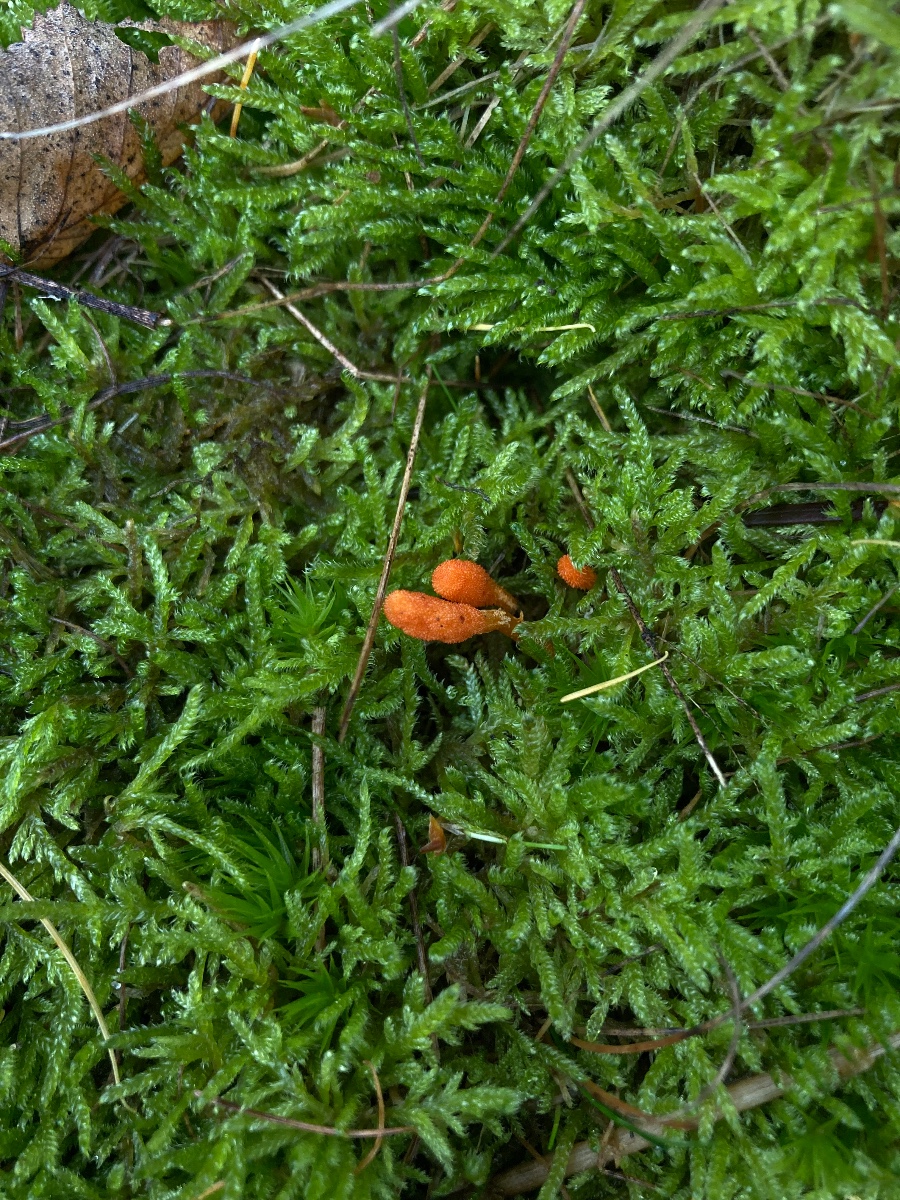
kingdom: Fungi
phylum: Ascomycota
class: Sordariomycetes
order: Hypocreales
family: Cordycipitaceae
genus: Cordyceps
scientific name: Cordyceps militaris
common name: puppe-snyltekølle
